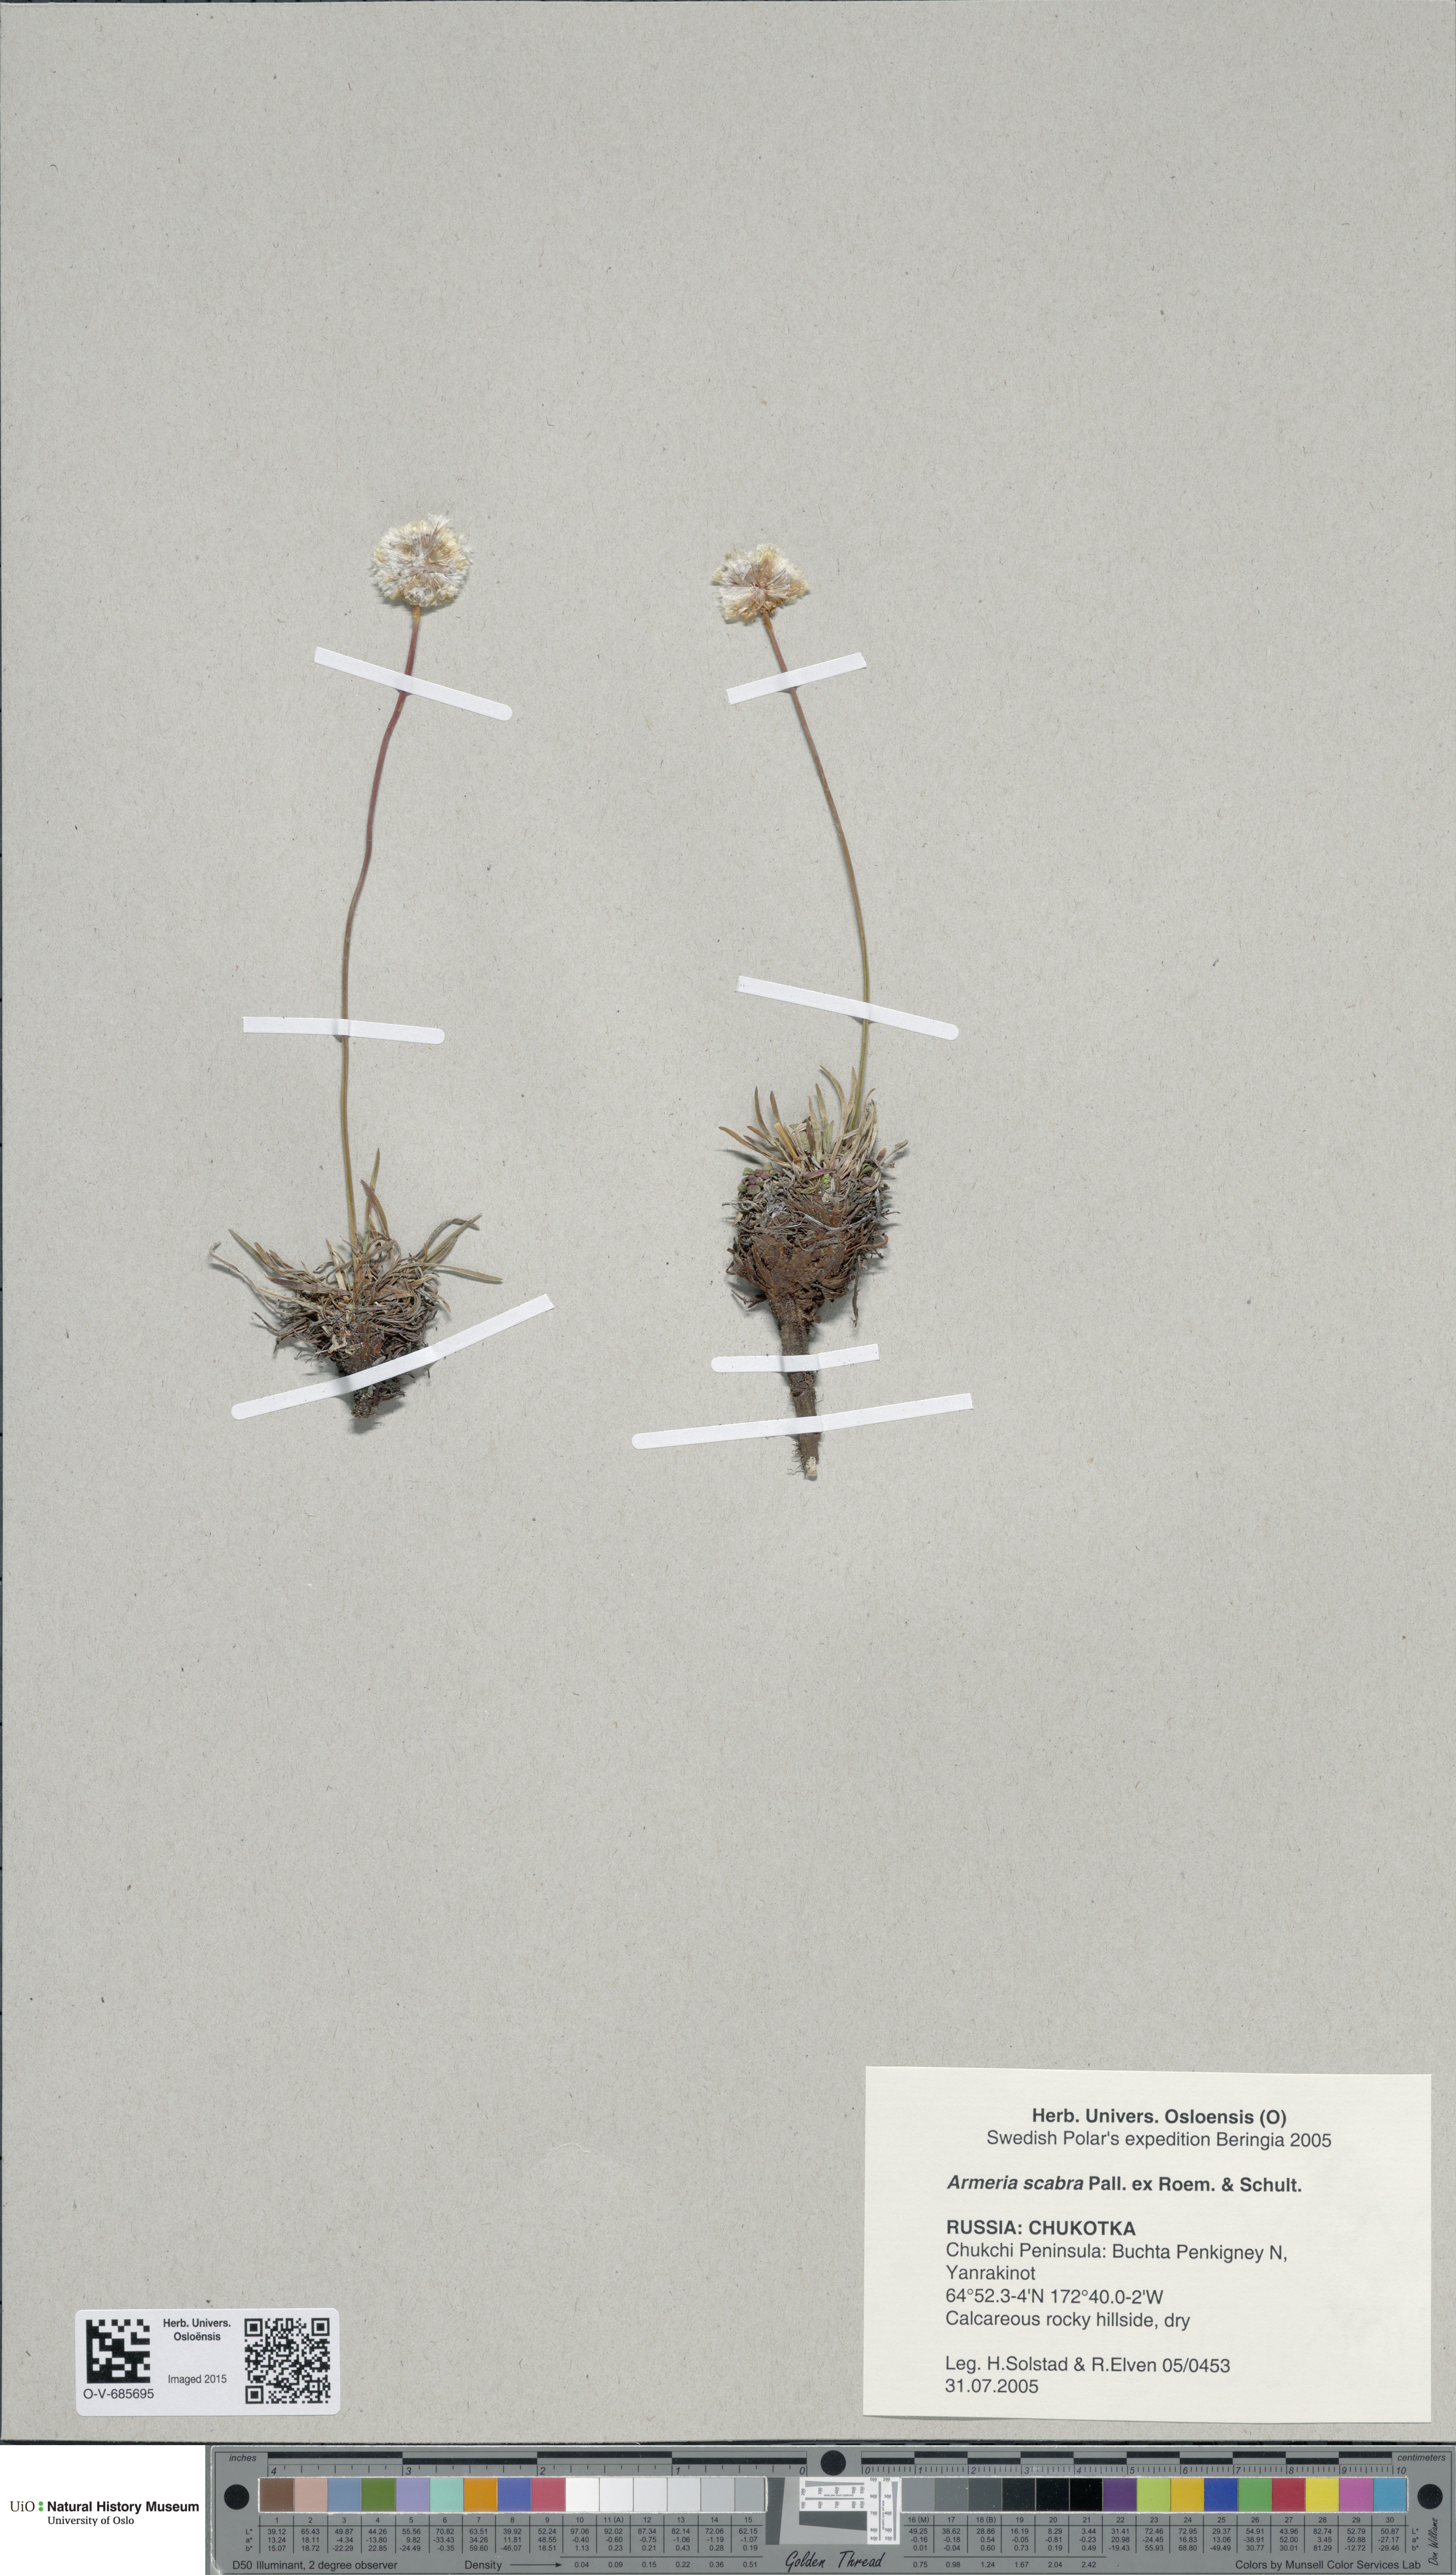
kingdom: Plantae
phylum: Tracheophyta
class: Magnoliopsida
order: Caryophyllales
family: Plumbaginaceae
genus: Armeria
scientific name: Armeria maritima
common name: Thrift
